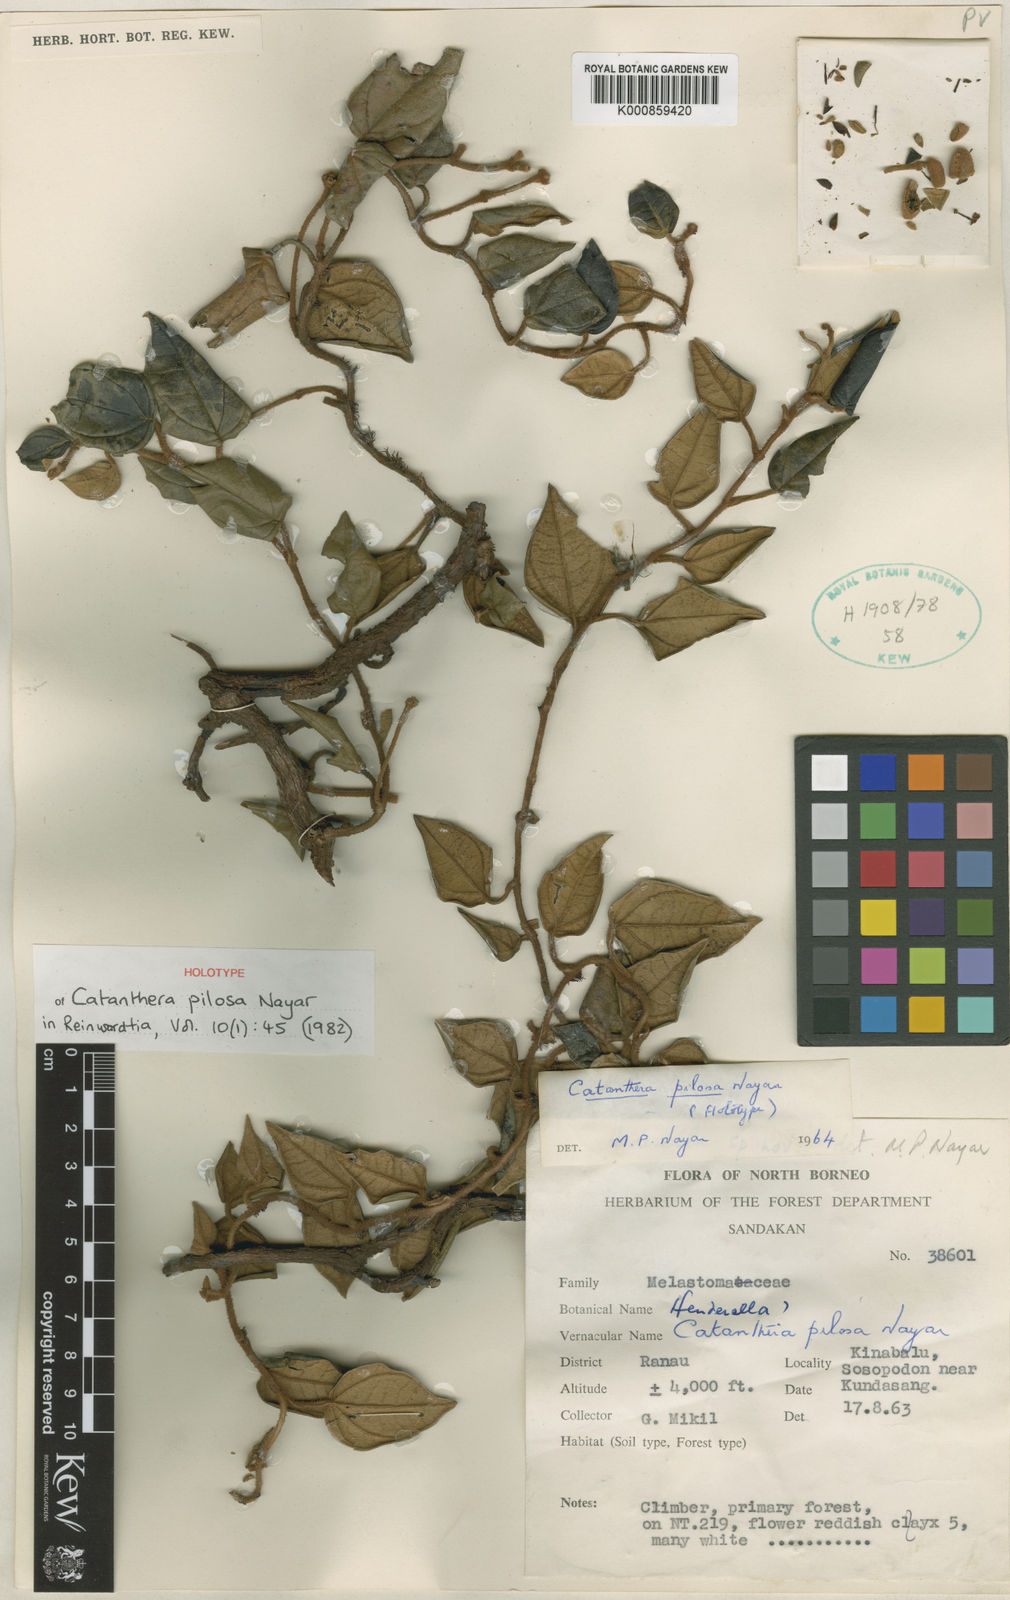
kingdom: Plantae
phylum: Tracheophyta
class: Magnoliopsida
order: Myrtales
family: Melastomataceae
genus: Catanthera
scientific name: Catanthera pilosa
